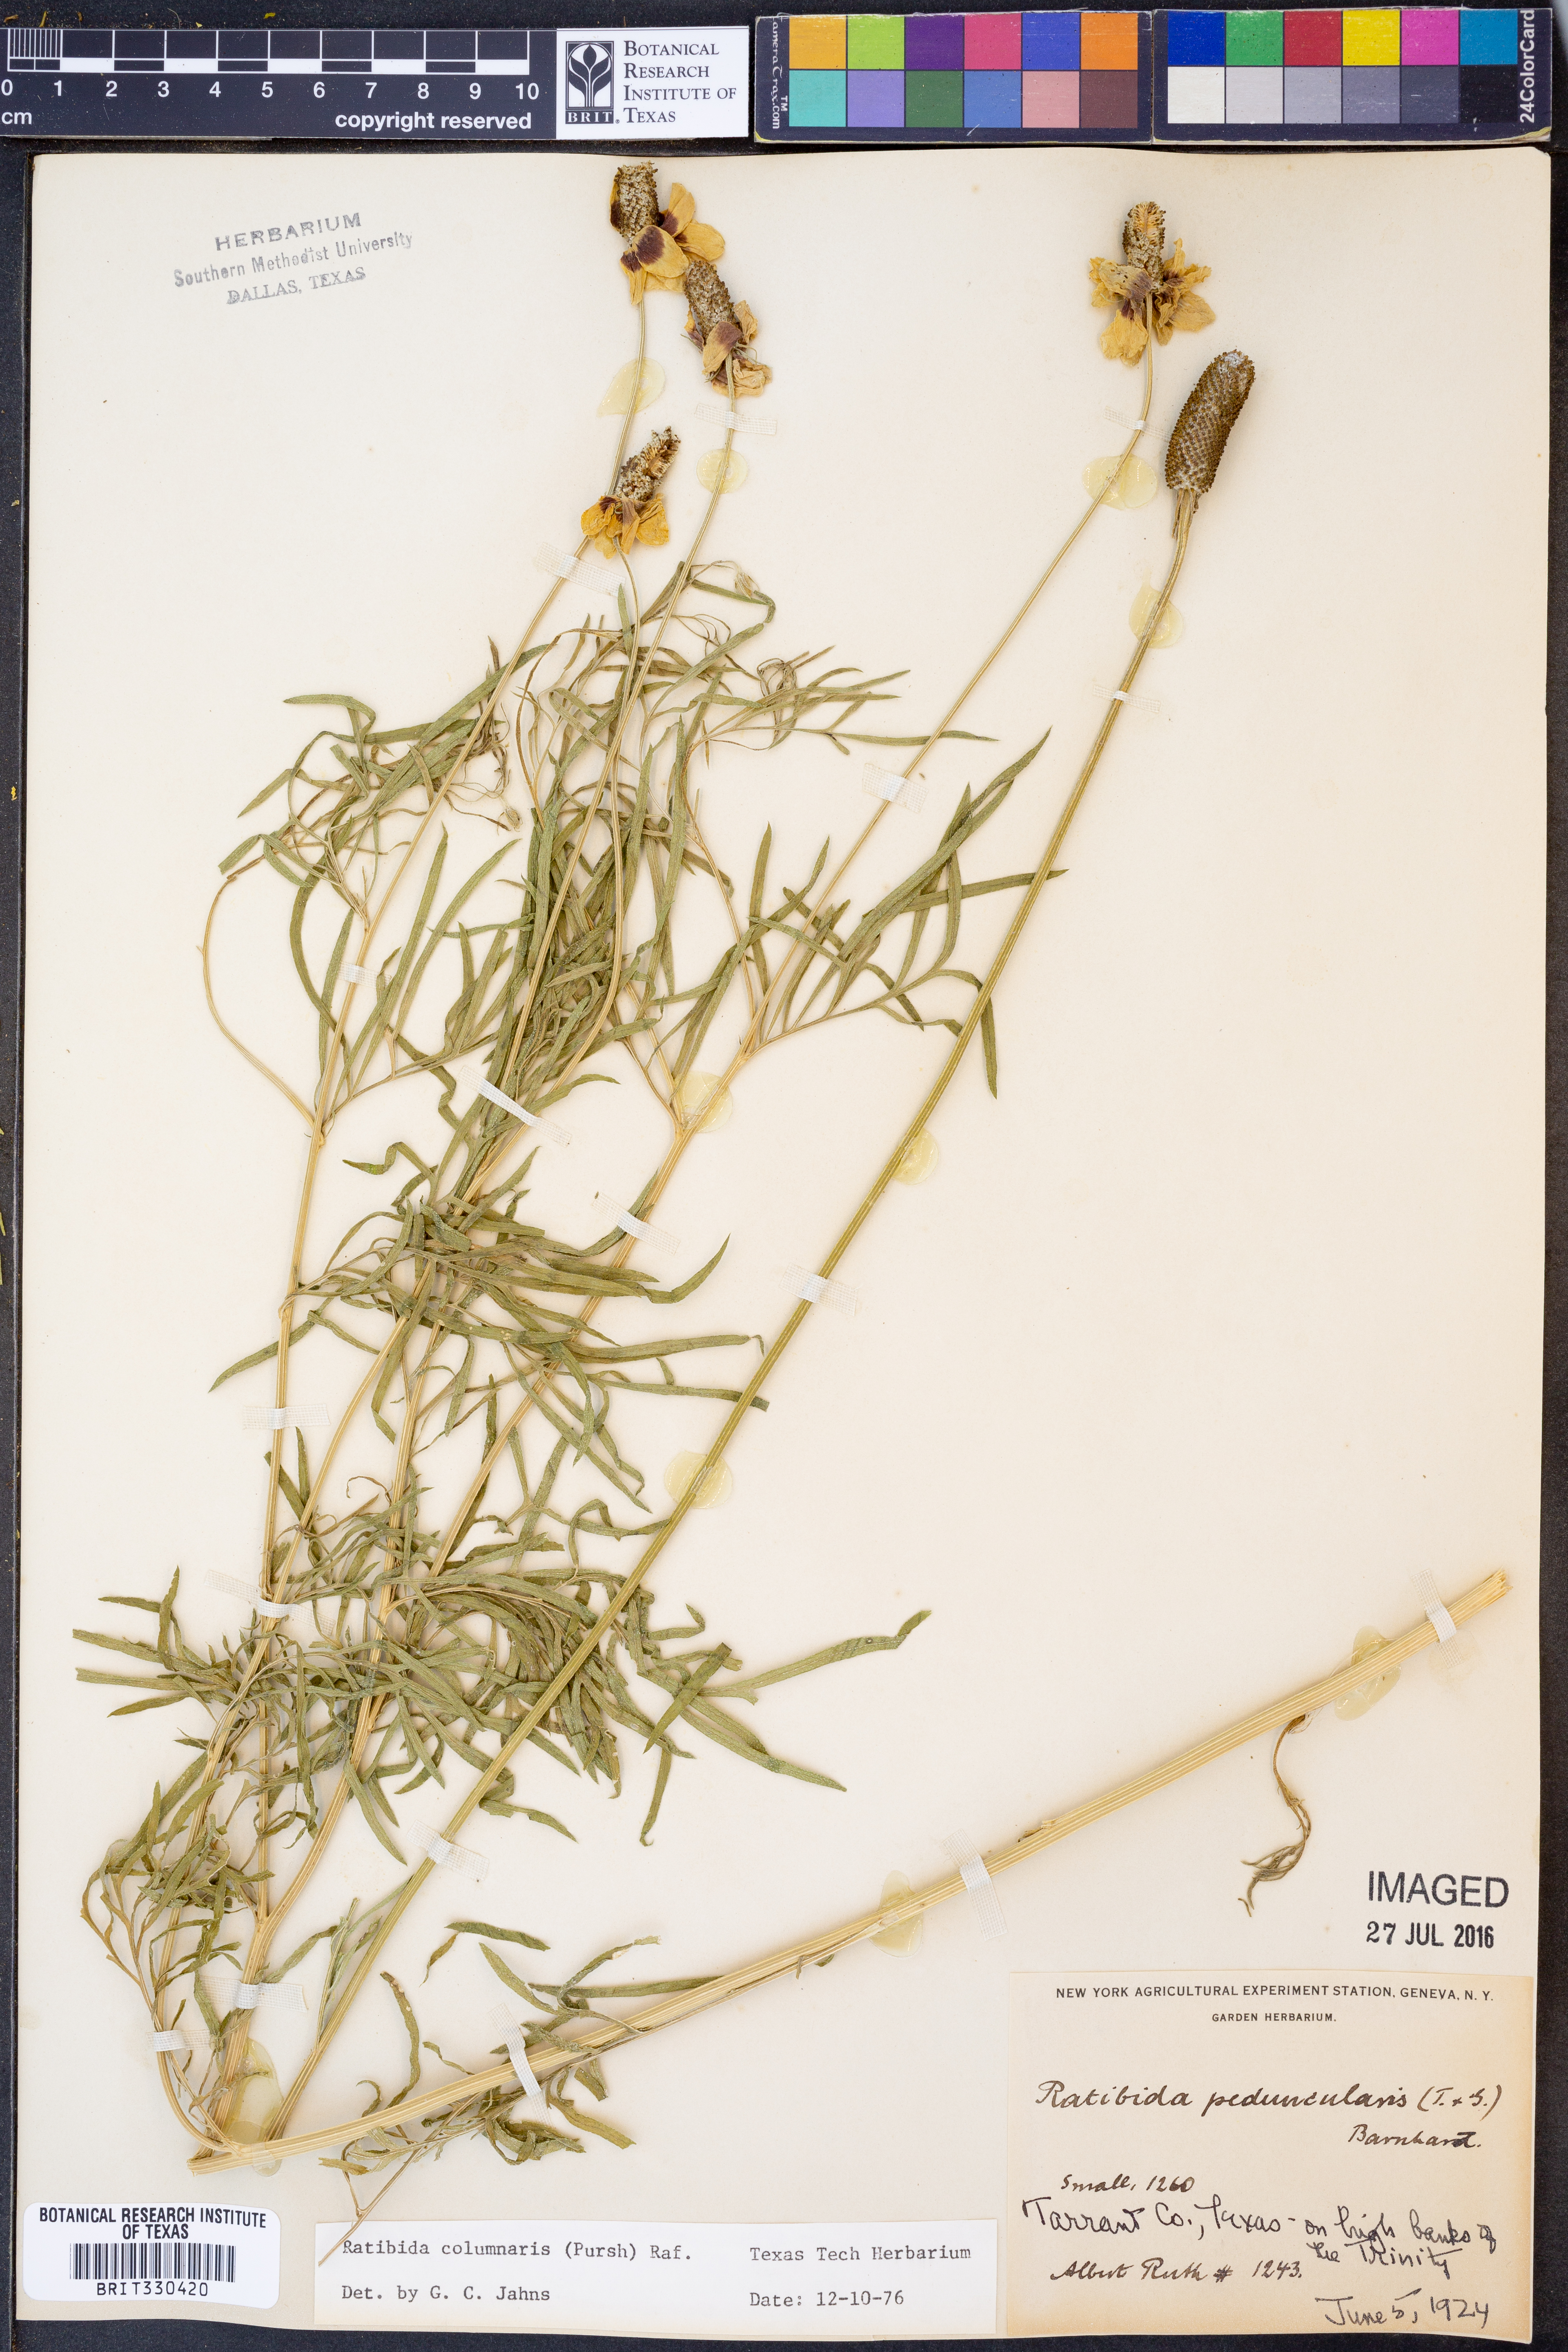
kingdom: Plantae
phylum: Tracheophyta
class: Magnoliopsida
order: Asterales
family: Asteraceae
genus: Ratibida
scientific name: Ratibida columnifera
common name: Prairie coneflower
